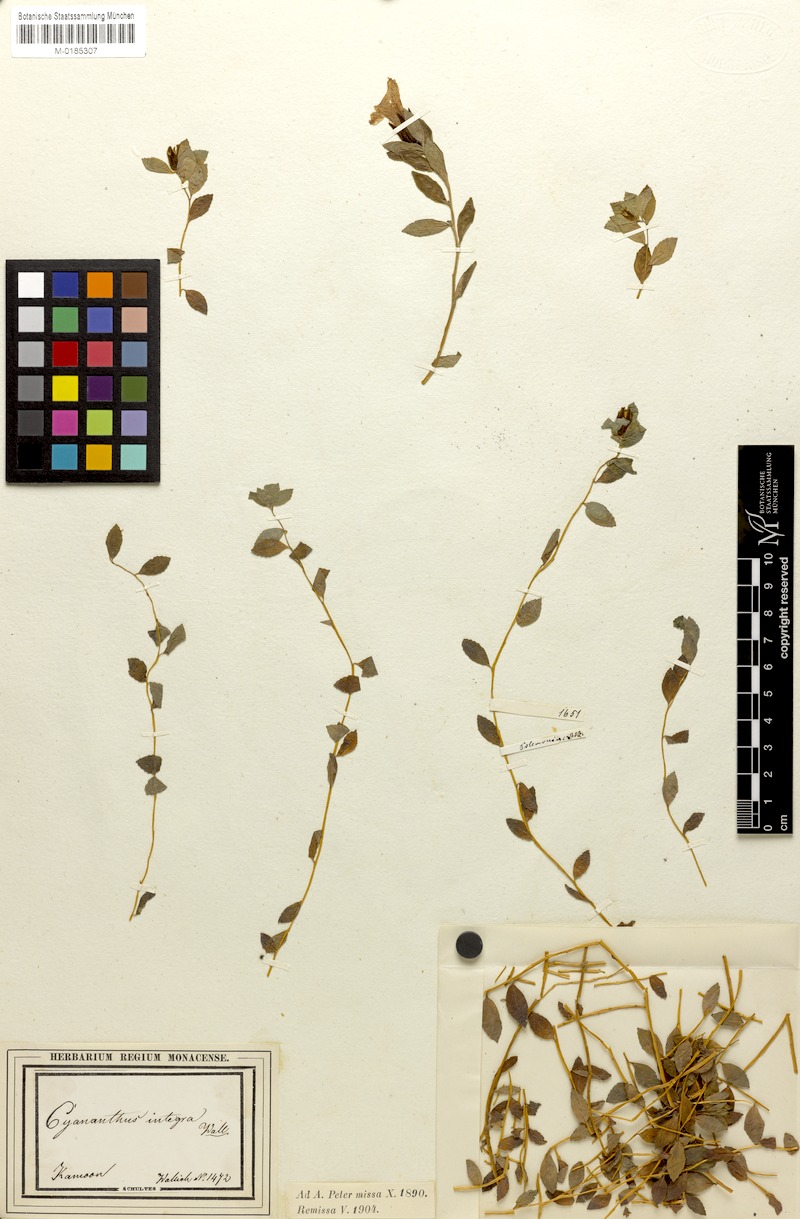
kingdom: Plantae
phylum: Tracheophyta
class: Magnoliopsida
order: Asterales
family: Campanulaceae
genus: Cyananthus
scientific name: Cyananthus integer
